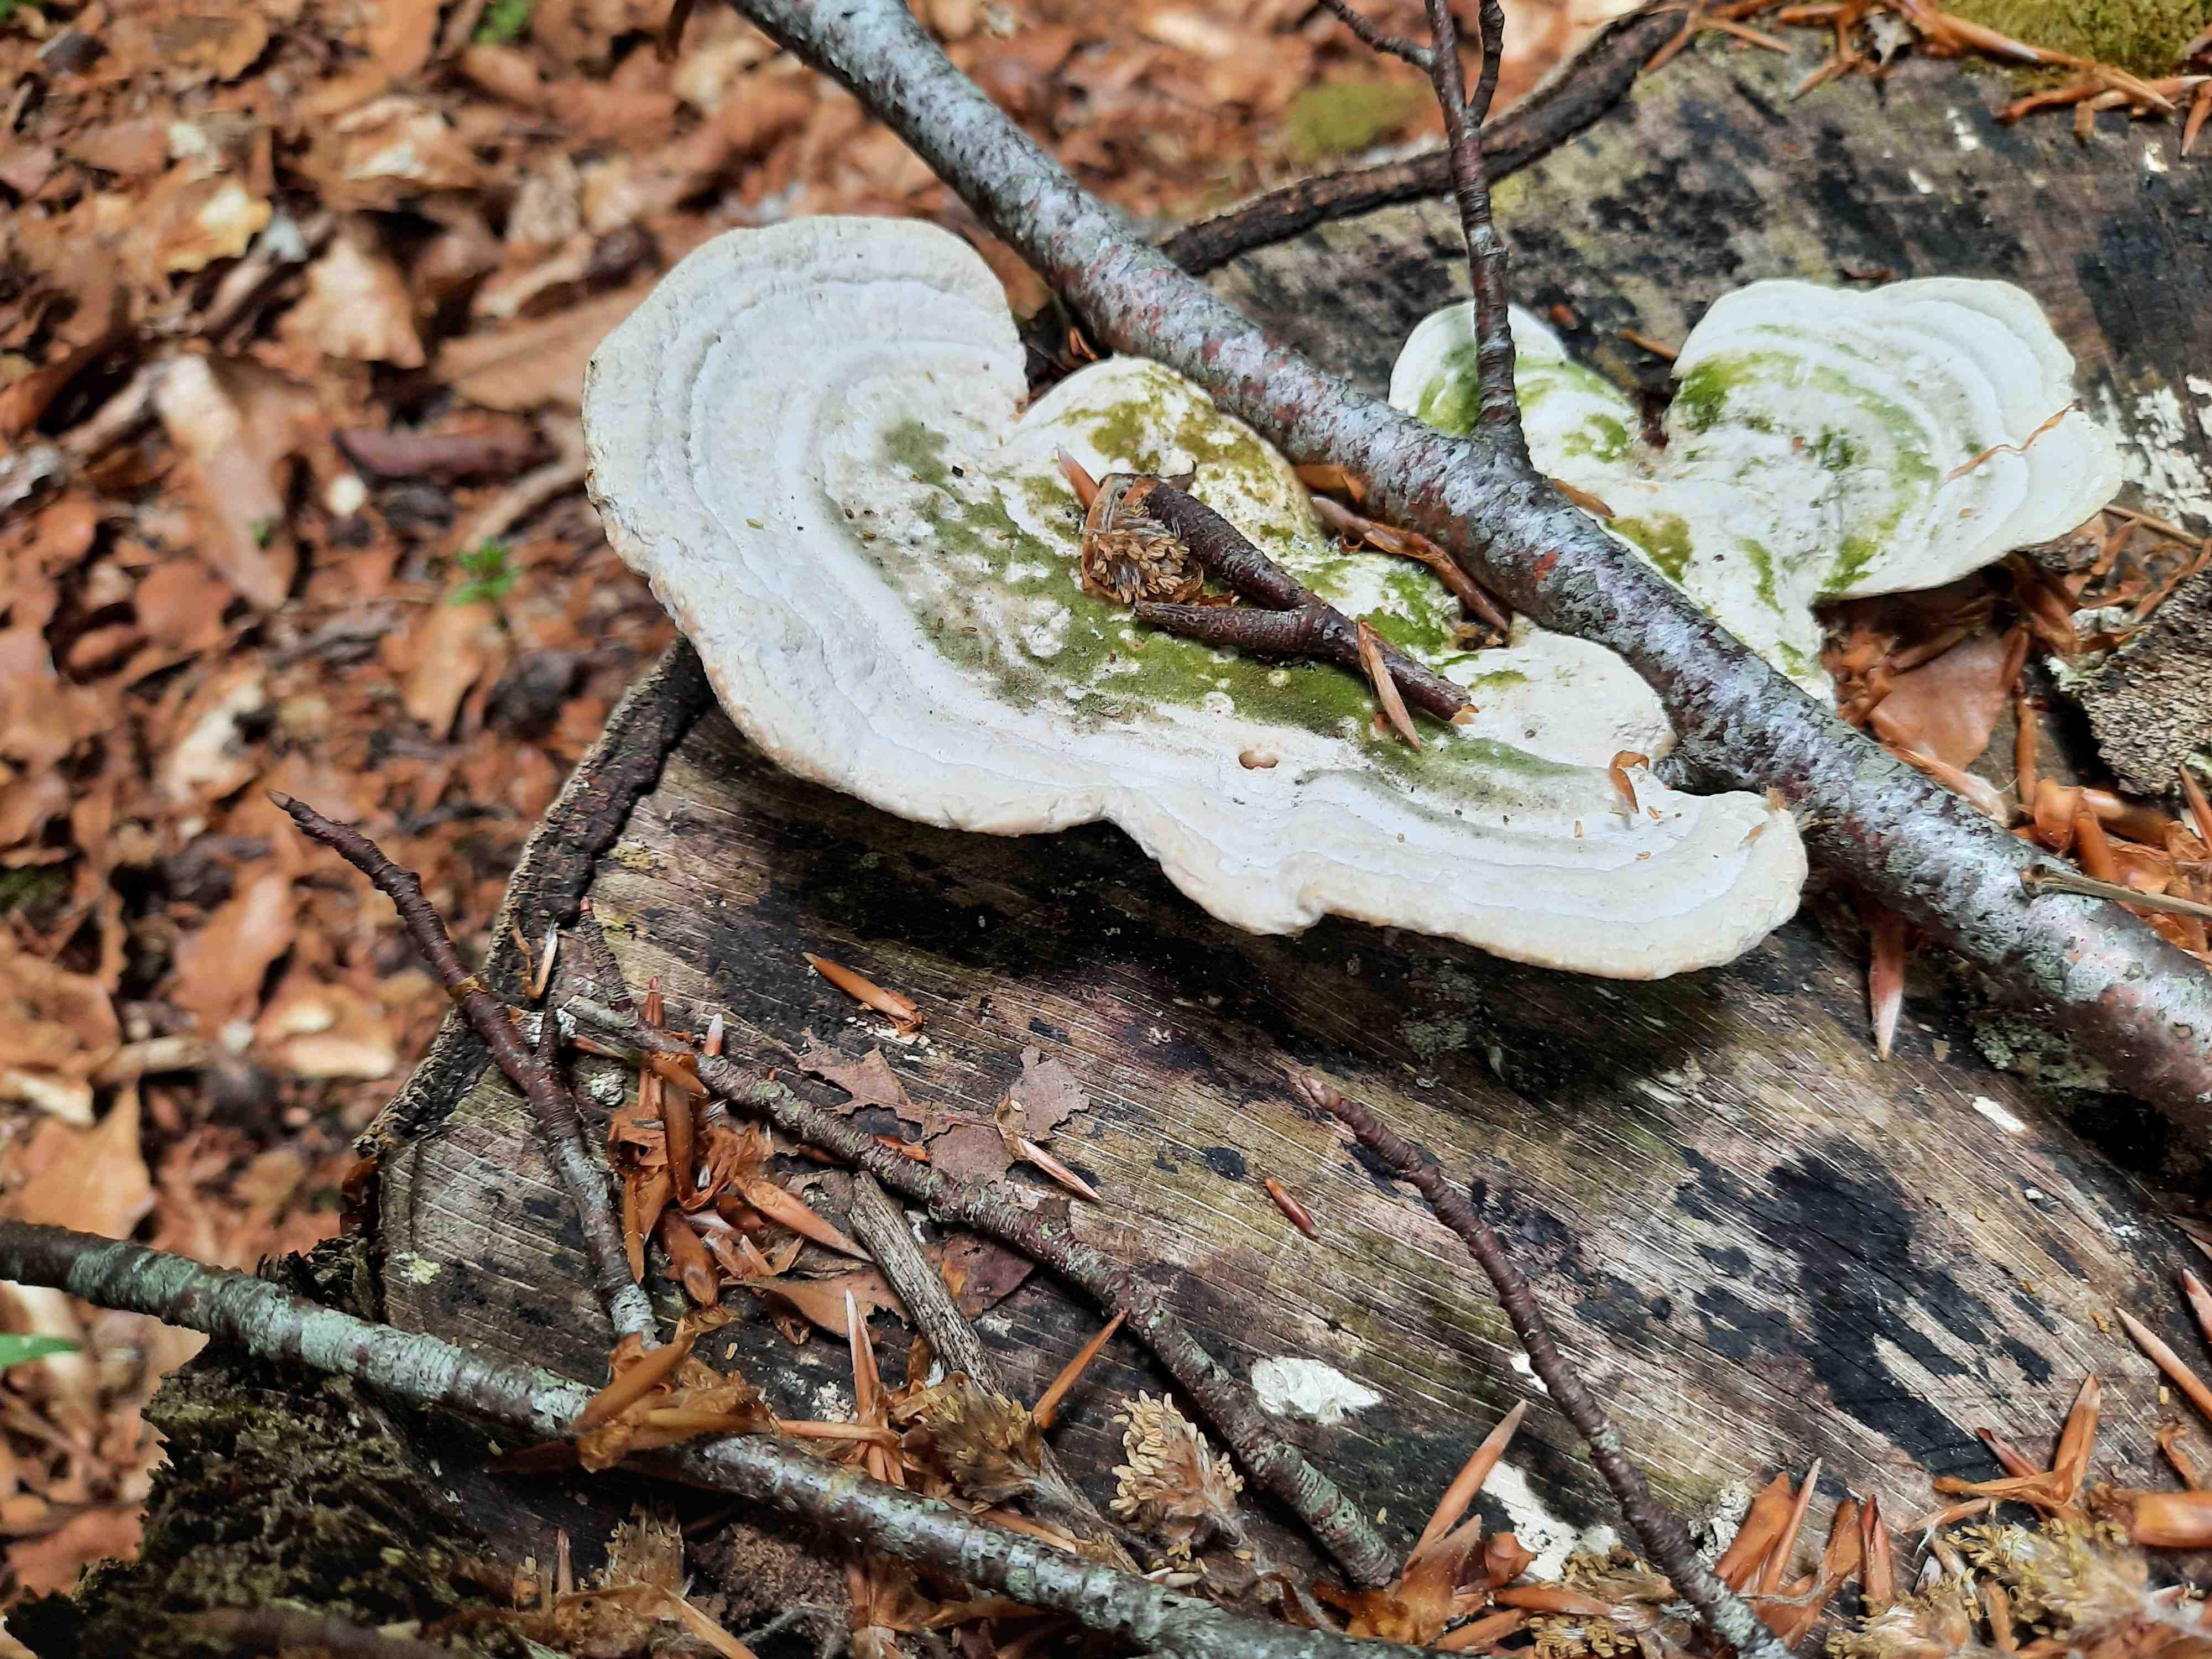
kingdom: Fungi
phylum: Basidiomycota
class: Agaricomycetes
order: Polyporales
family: Polyporaceae
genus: Trametes
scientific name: Trametes gibbosa
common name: puklet læderporesvamp
